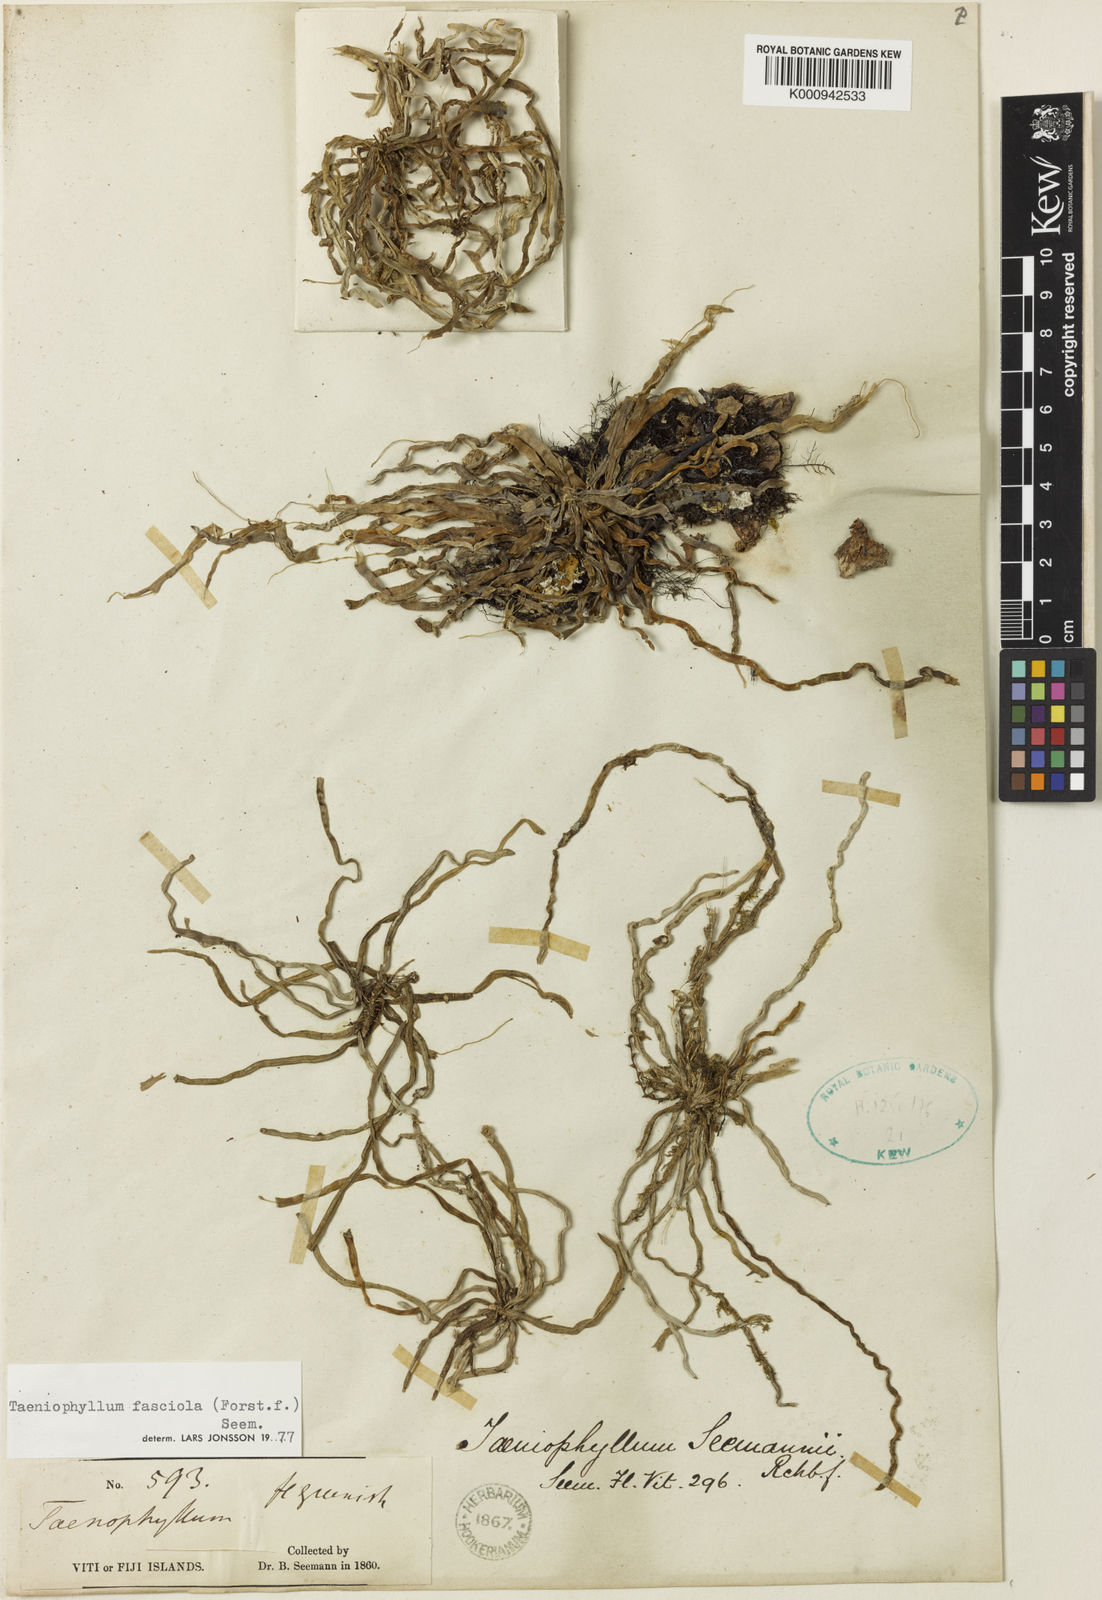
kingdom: Plantae
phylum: Tracheophyta
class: Liliopsida
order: Asparagales
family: Orchidaceae
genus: Taeniophyllum
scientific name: Taeniophyllum fasciola
